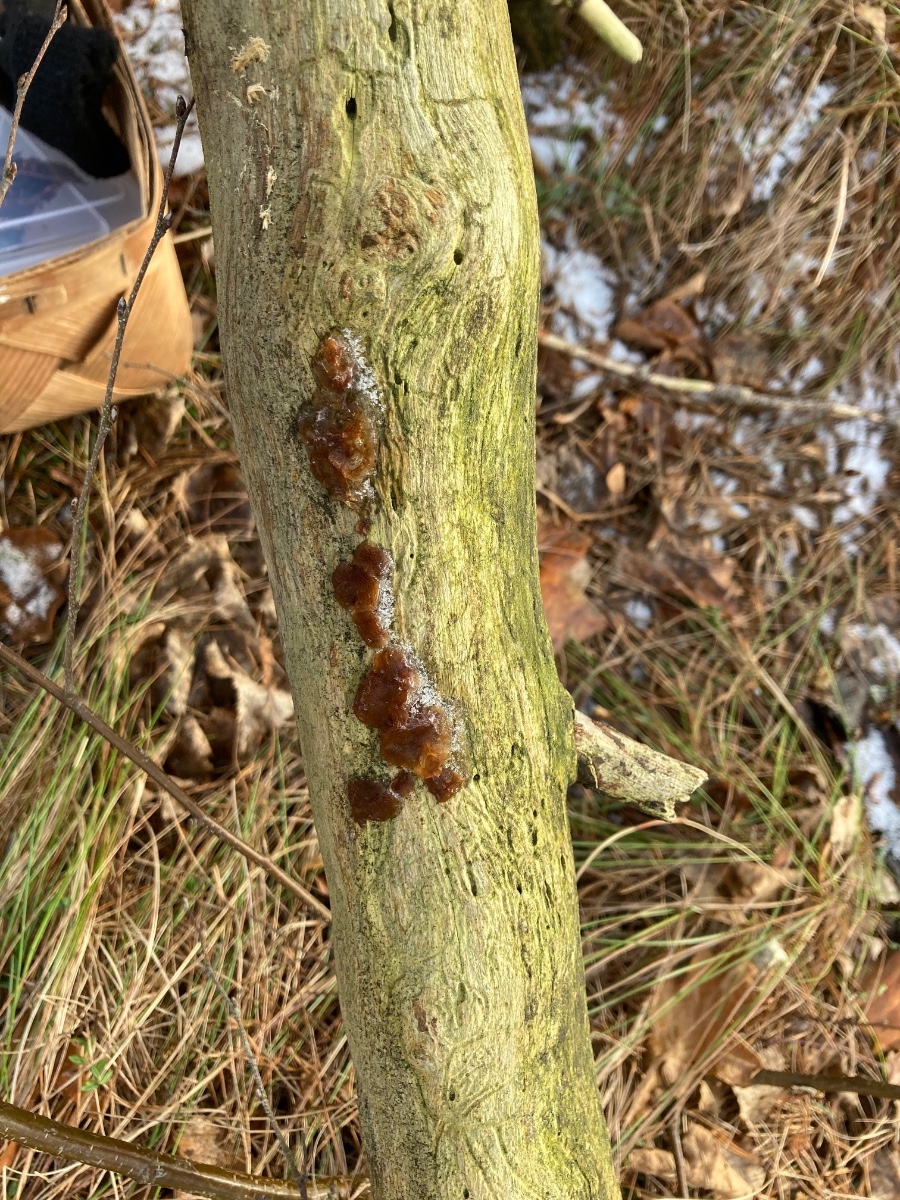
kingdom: Fungi
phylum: Basidiomycota
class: Agaricomycetes
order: Auriculariales
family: Auriculariaceae
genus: Exidia
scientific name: Exidia saccharina
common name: kandis-bævretop
